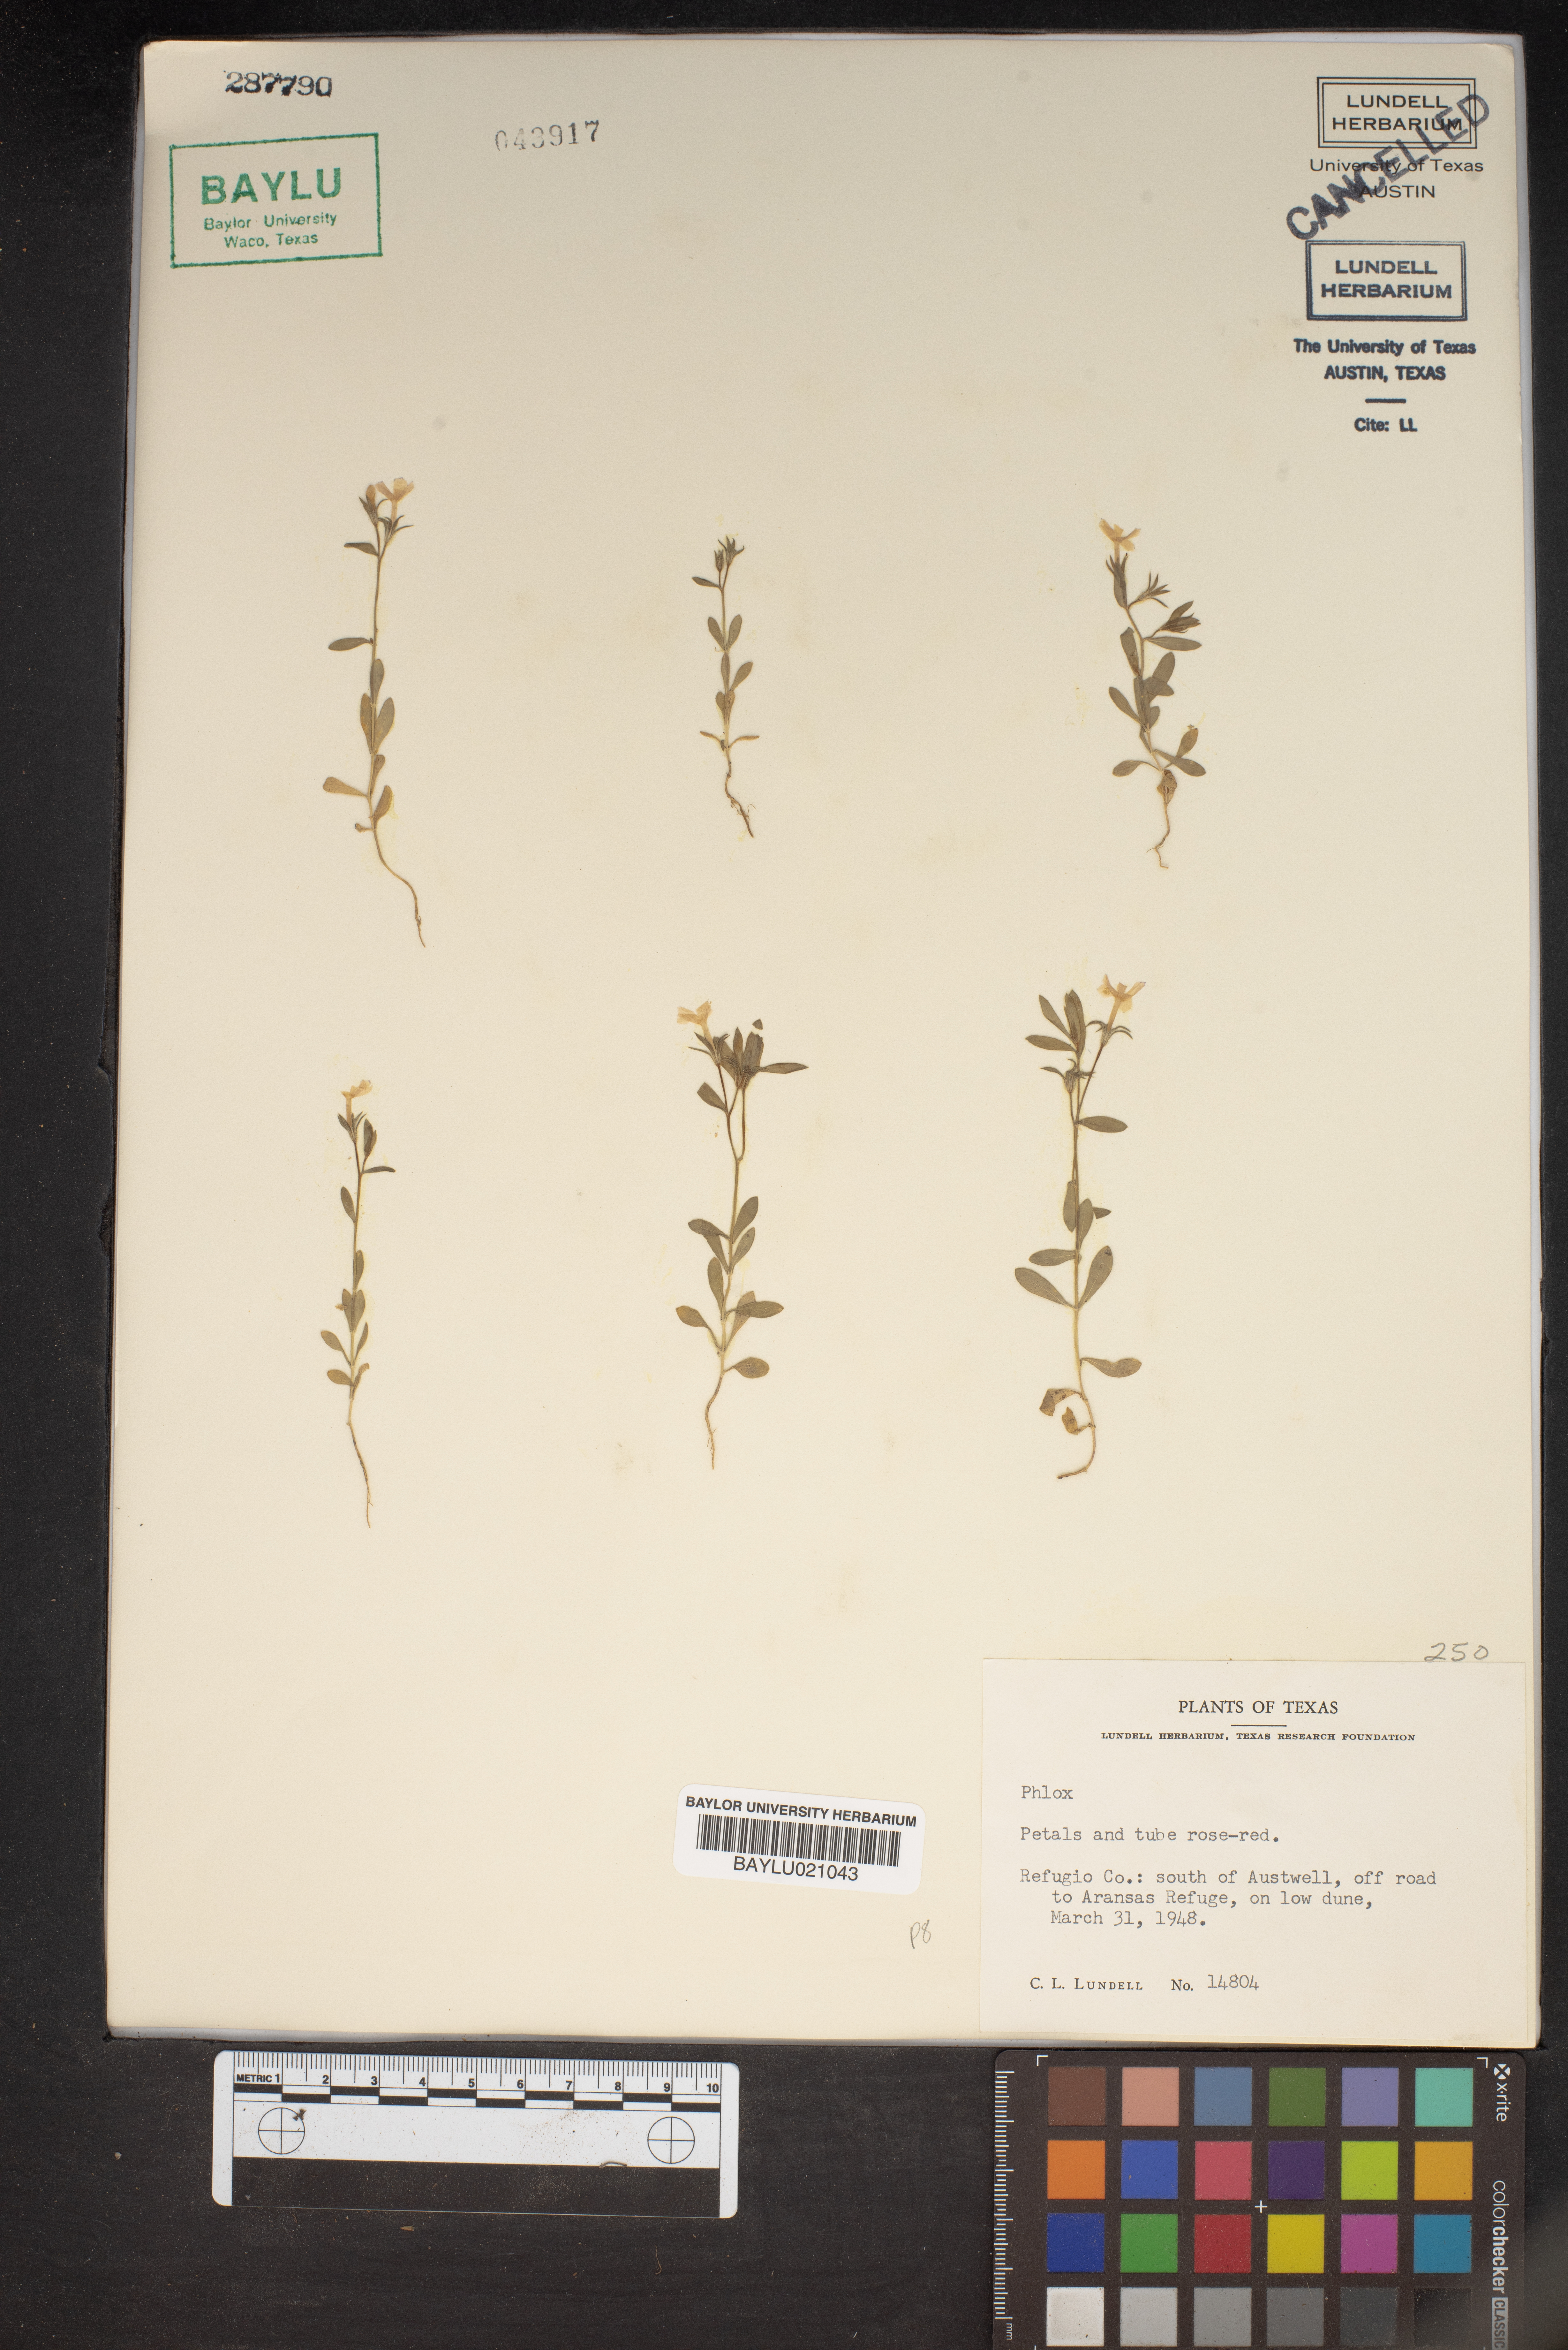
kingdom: Plantae
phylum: Tracheophyta
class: Magnoliopsida
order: Ericales
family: Polemoniaceae
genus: Phlox
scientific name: Phlox
